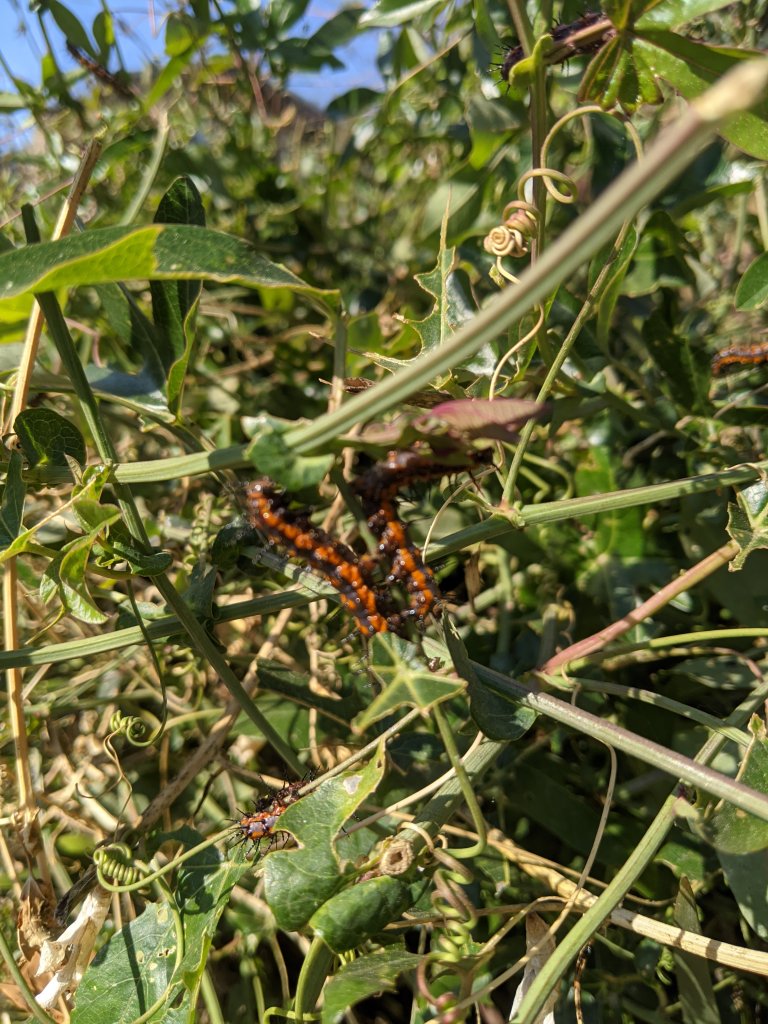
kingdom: Animalia
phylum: Arthropoda
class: Insecta
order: Lepidoptera
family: Nymphalidae
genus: Dione
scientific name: Dione vanillae
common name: Gulf Fritillary
